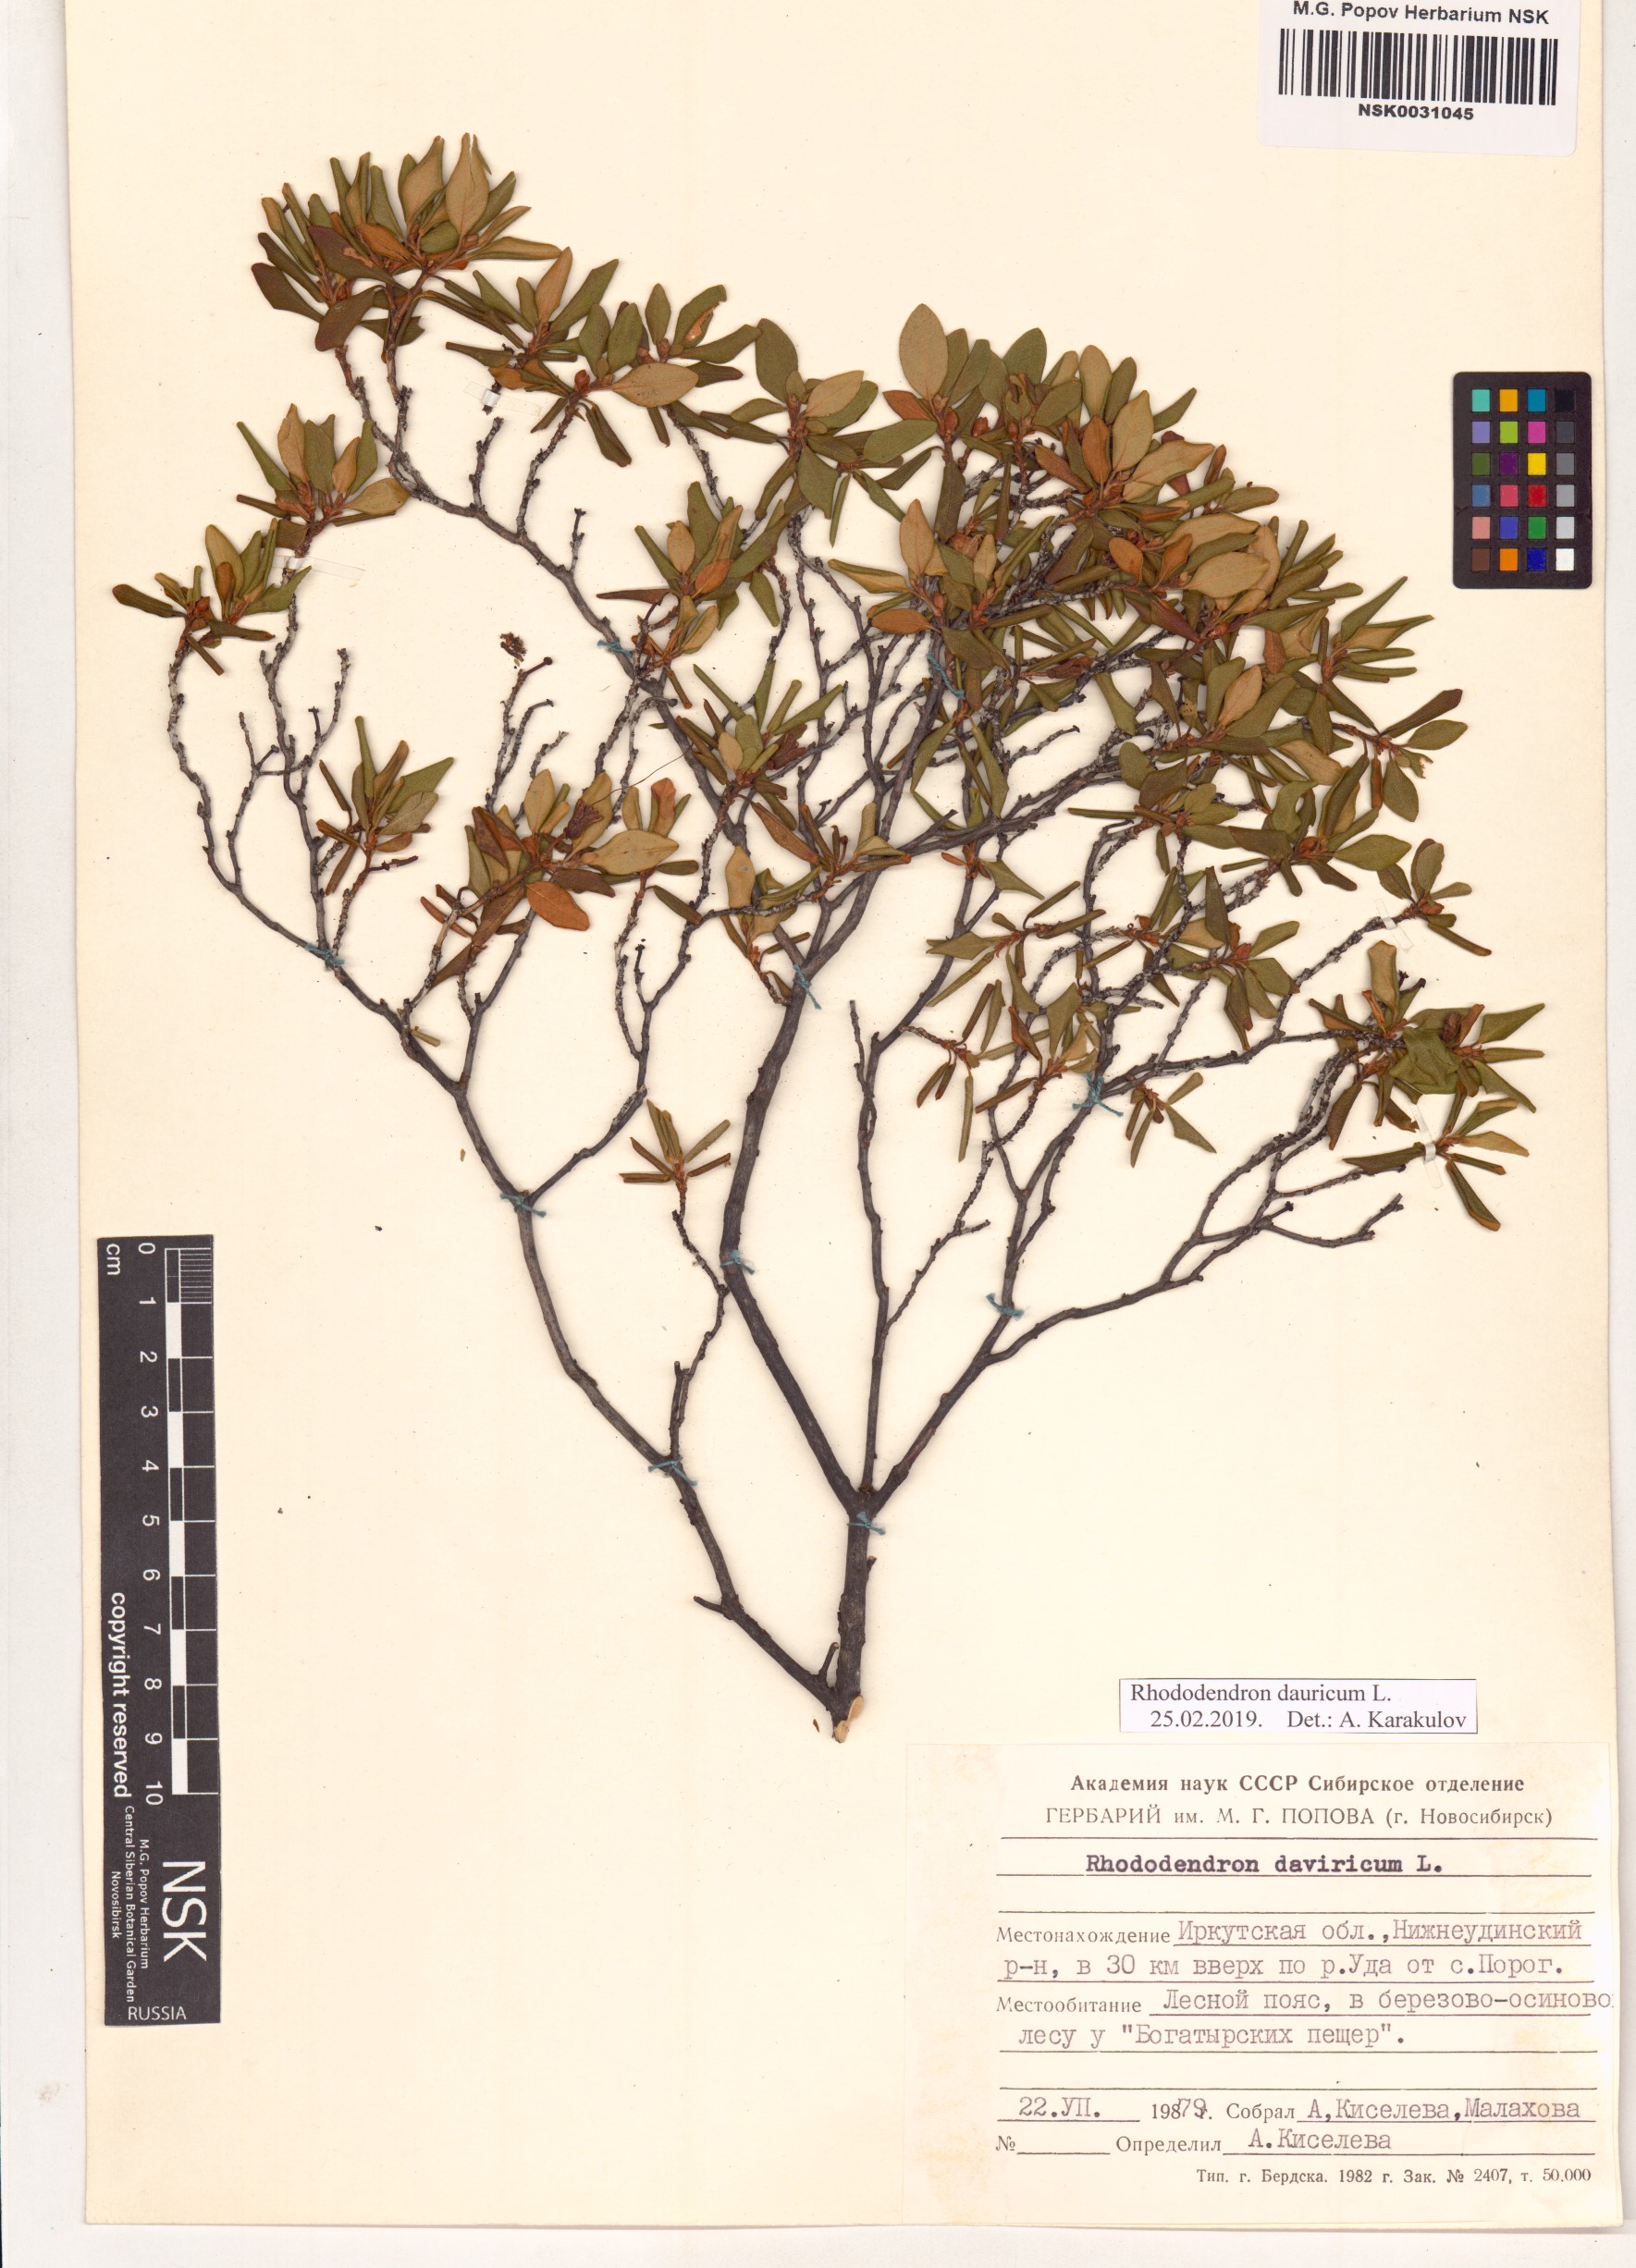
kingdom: Plantae
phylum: Tracheophyta
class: Magnoliopsida
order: Ericales
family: Ericaceae
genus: Rhododendron
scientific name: Rhododendron dauricum
